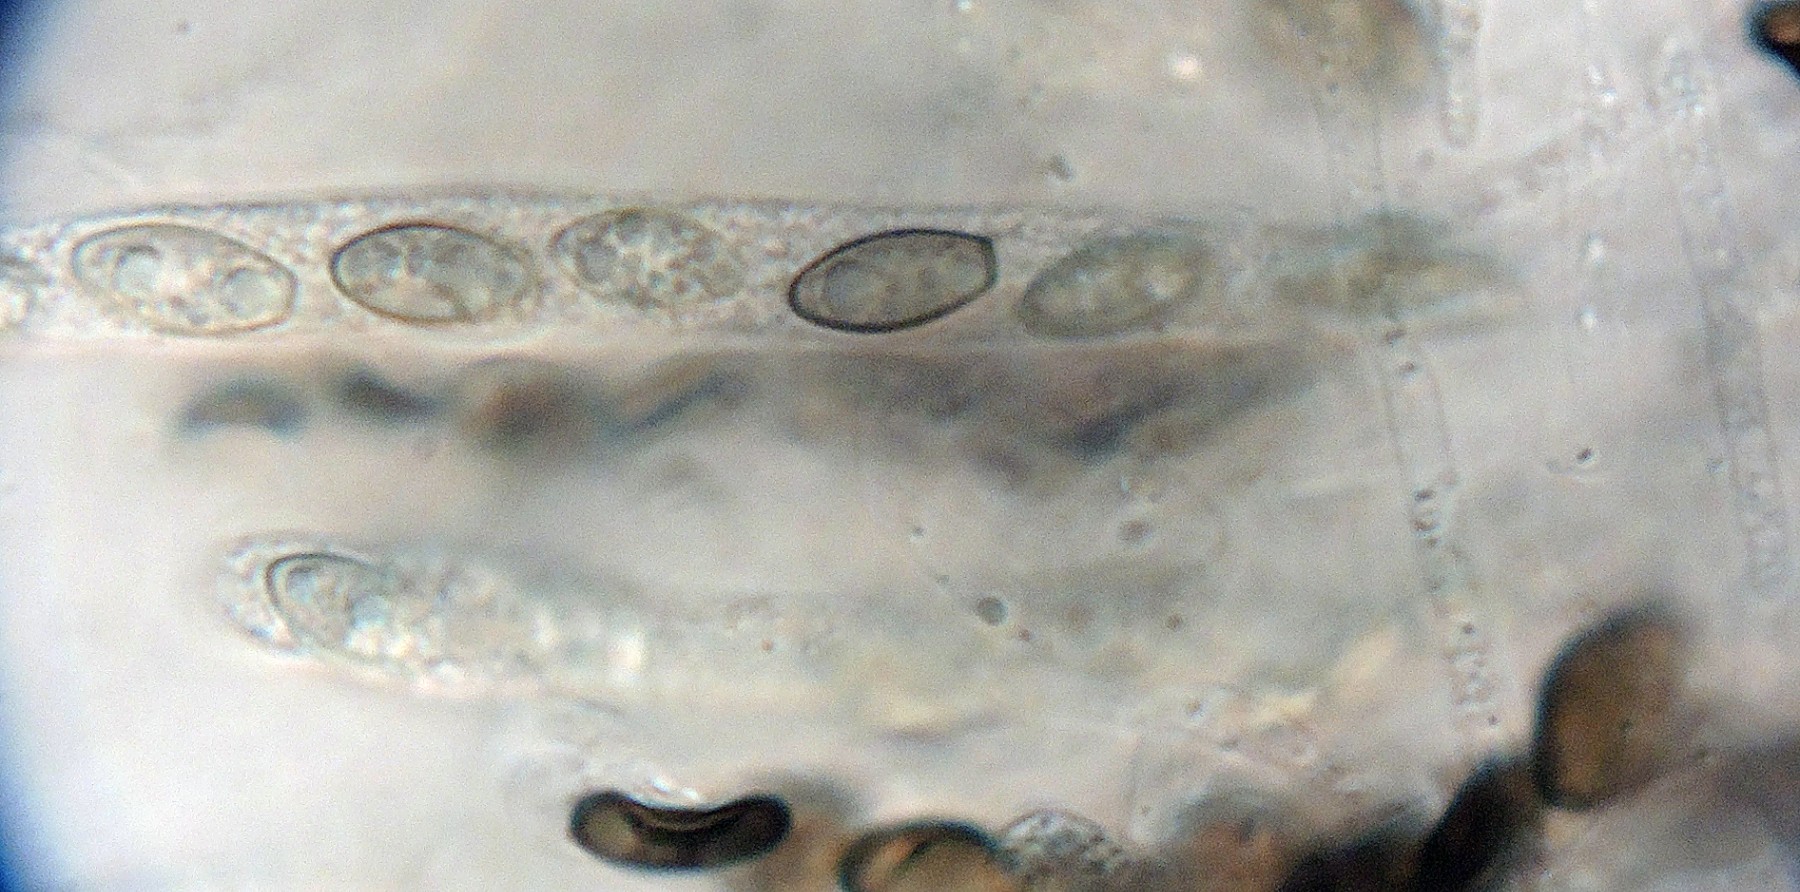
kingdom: Fungi
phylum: Ascomycota
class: Sordariomycetes
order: Xylariales
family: Xylariaceae
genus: Anthostomella
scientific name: Anthostomella
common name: skjoldkerne
